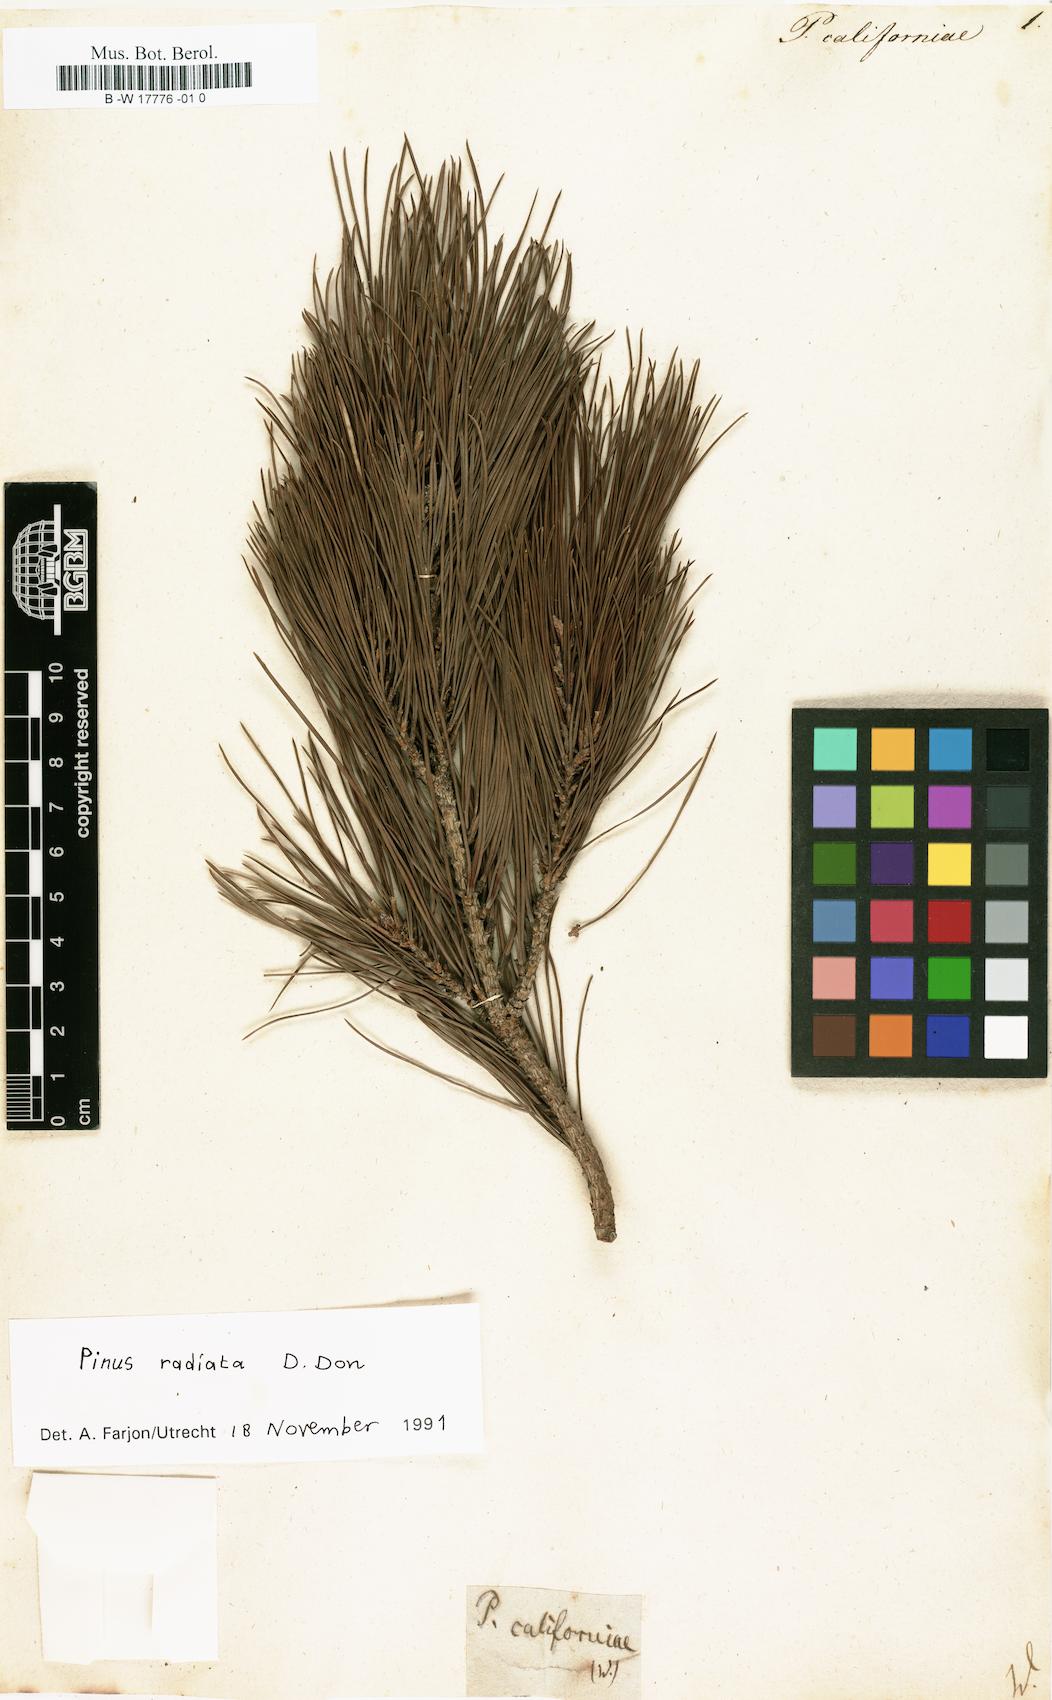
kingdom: Plantae
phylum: Tracheophyta
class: Pinopsida
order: Pinales
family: Pinaceae
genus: Pinus
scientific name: Pinus radiata
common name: Monterey pine
